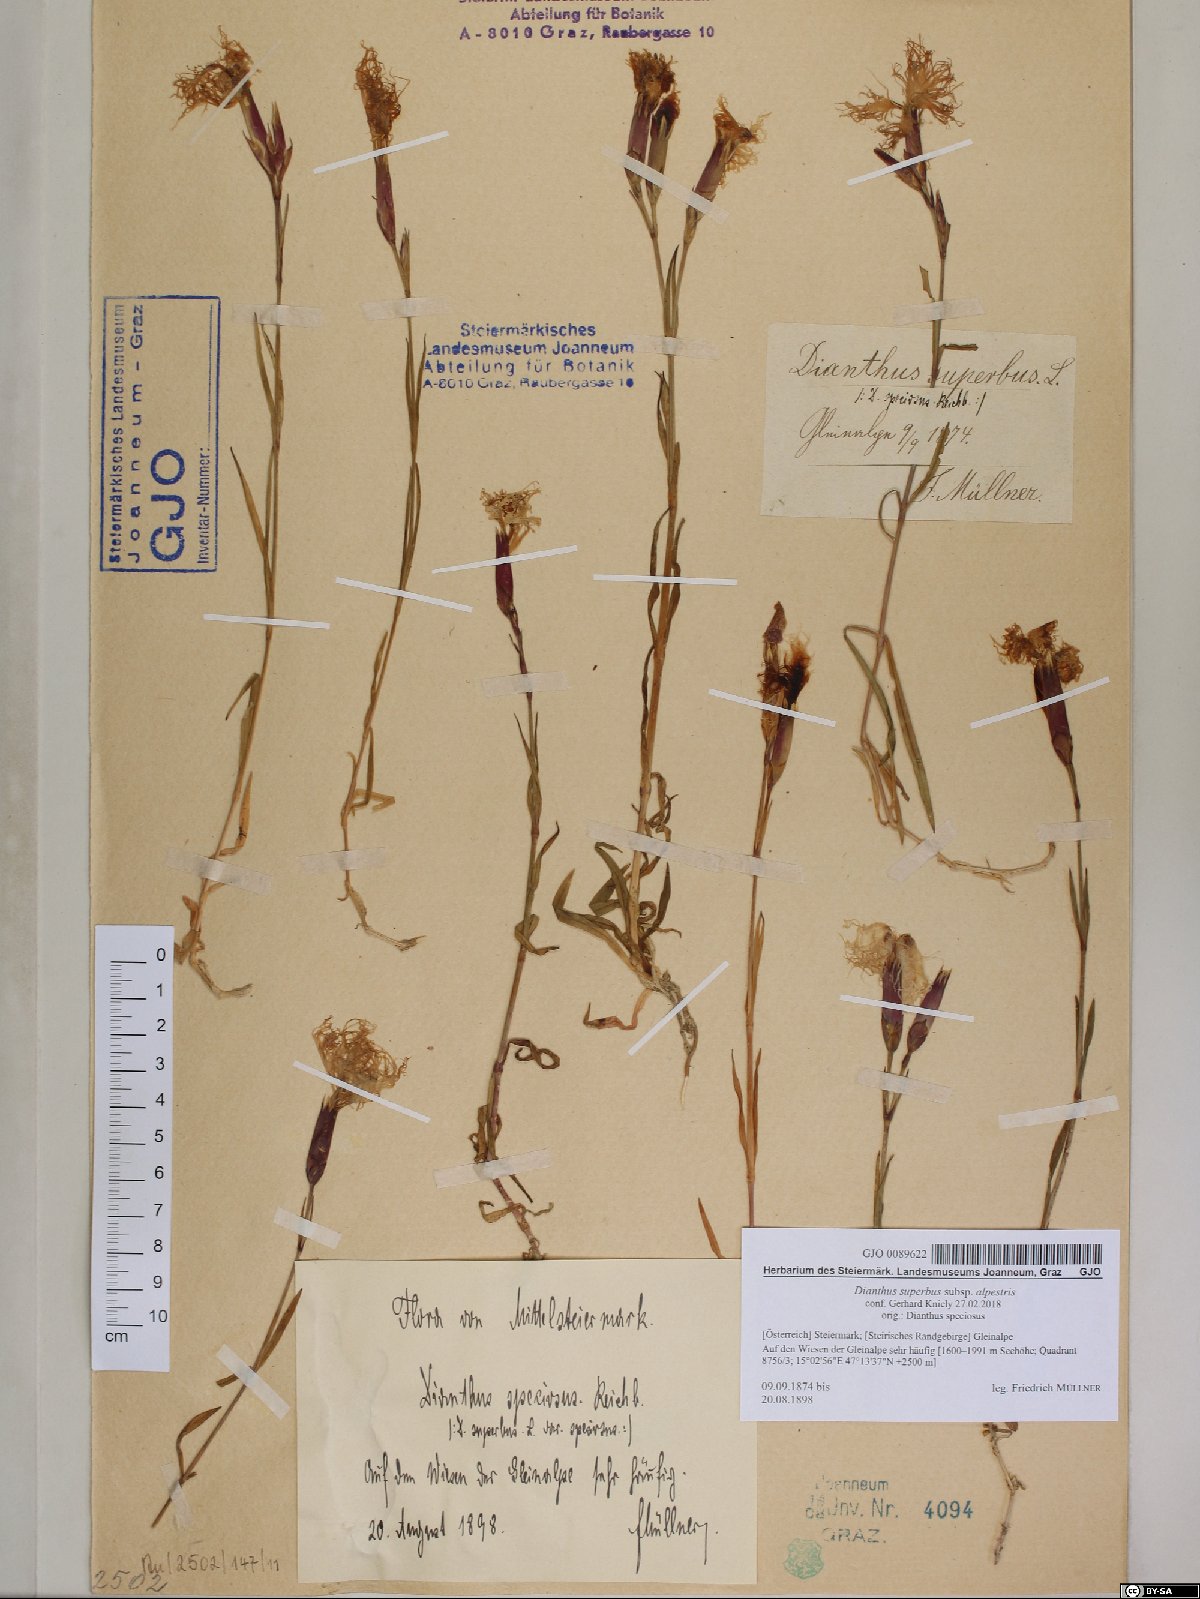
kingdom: Plantae
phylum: Tracheophyta
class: Magnoliopsida
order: Caryophyllales
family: Caryophyllaceae
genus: Dianthus
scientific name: Dianthus superbus
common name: Fringed pink
